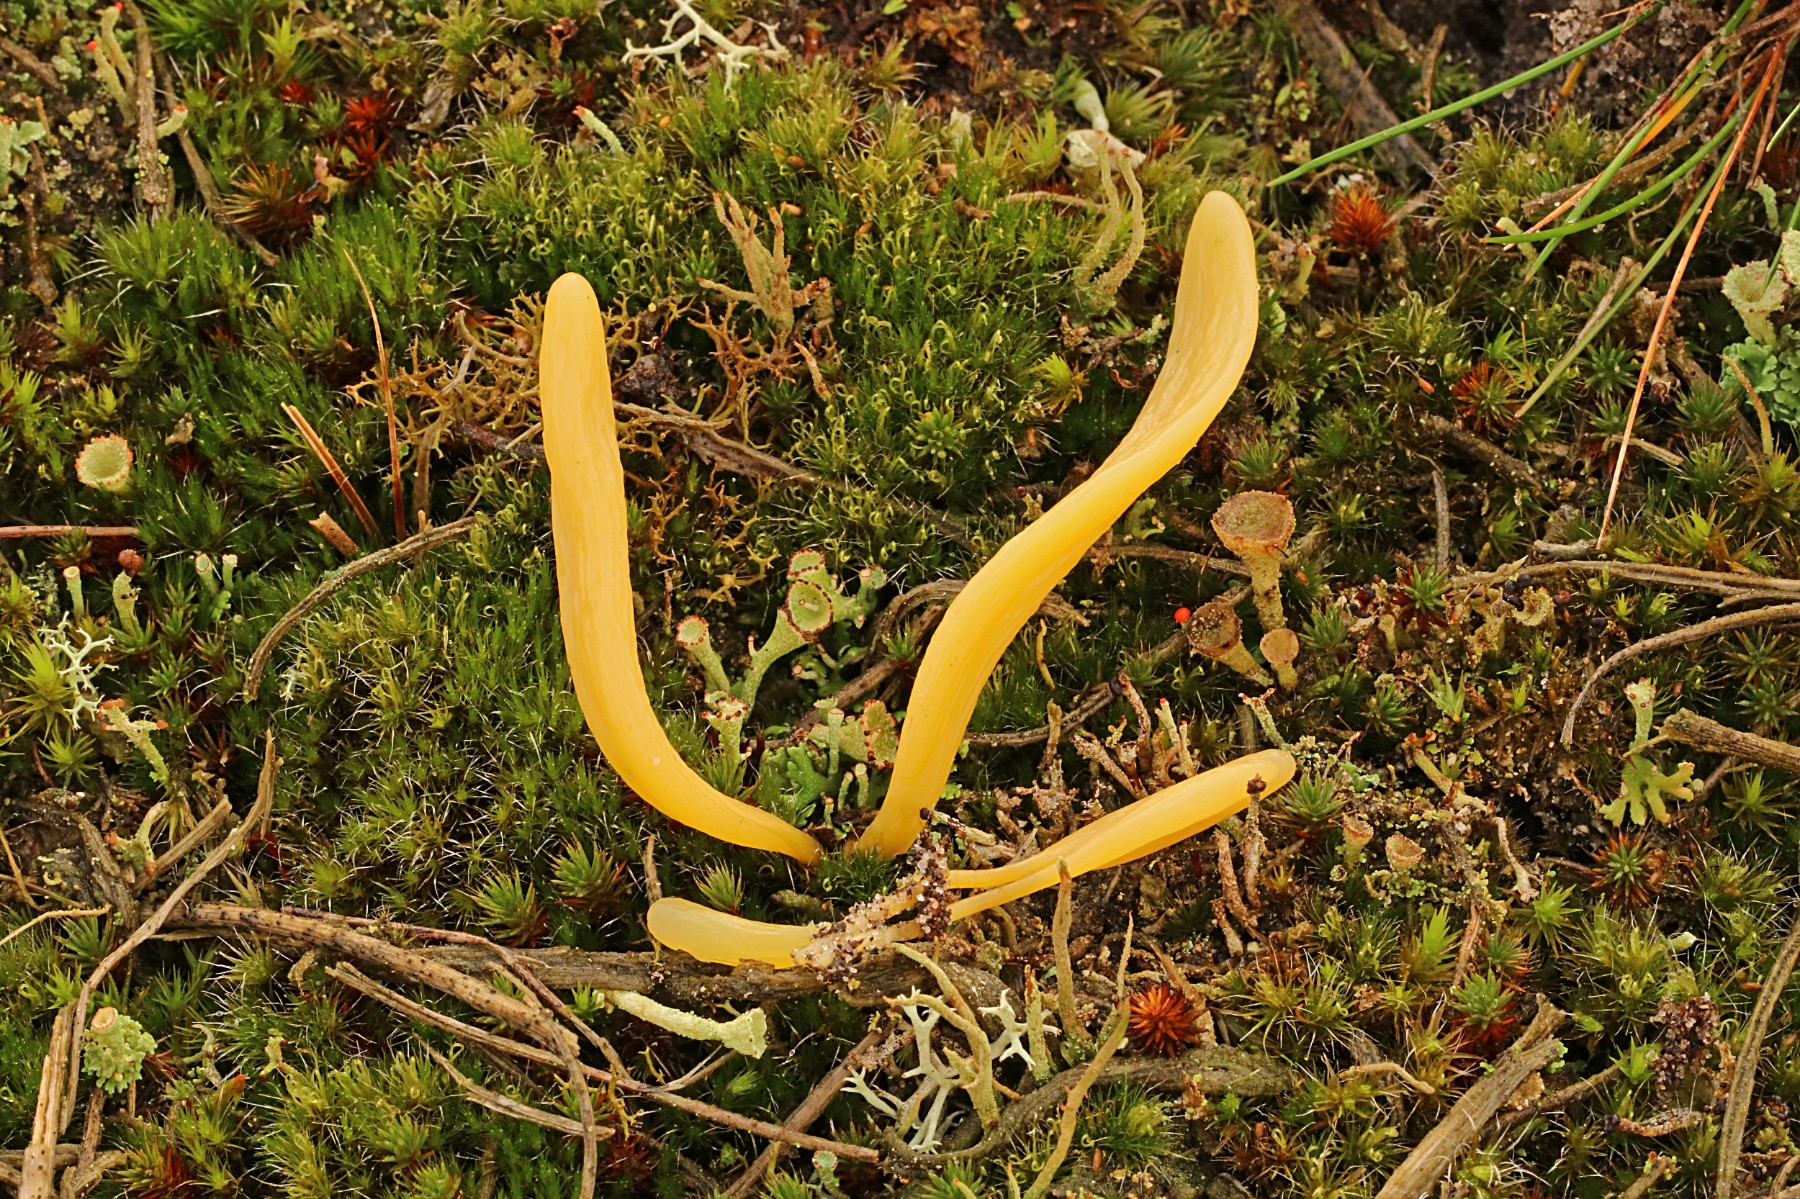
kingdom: Fungi
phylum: Basidiomycota
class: Agaricomycetes
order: Agaricales
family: Clavariaceae
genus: Clavaria
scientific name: Clavaria argillacea
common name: lerfarvet køllesvamp
